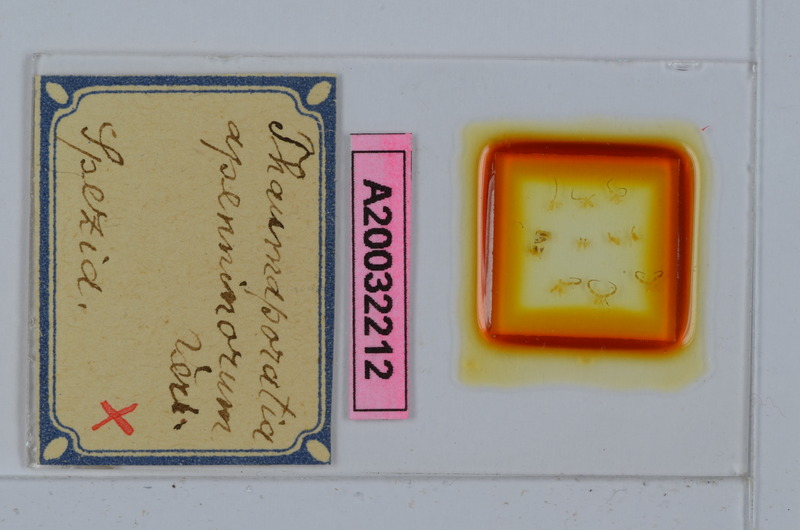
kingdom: Animalia
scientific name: Animalia
